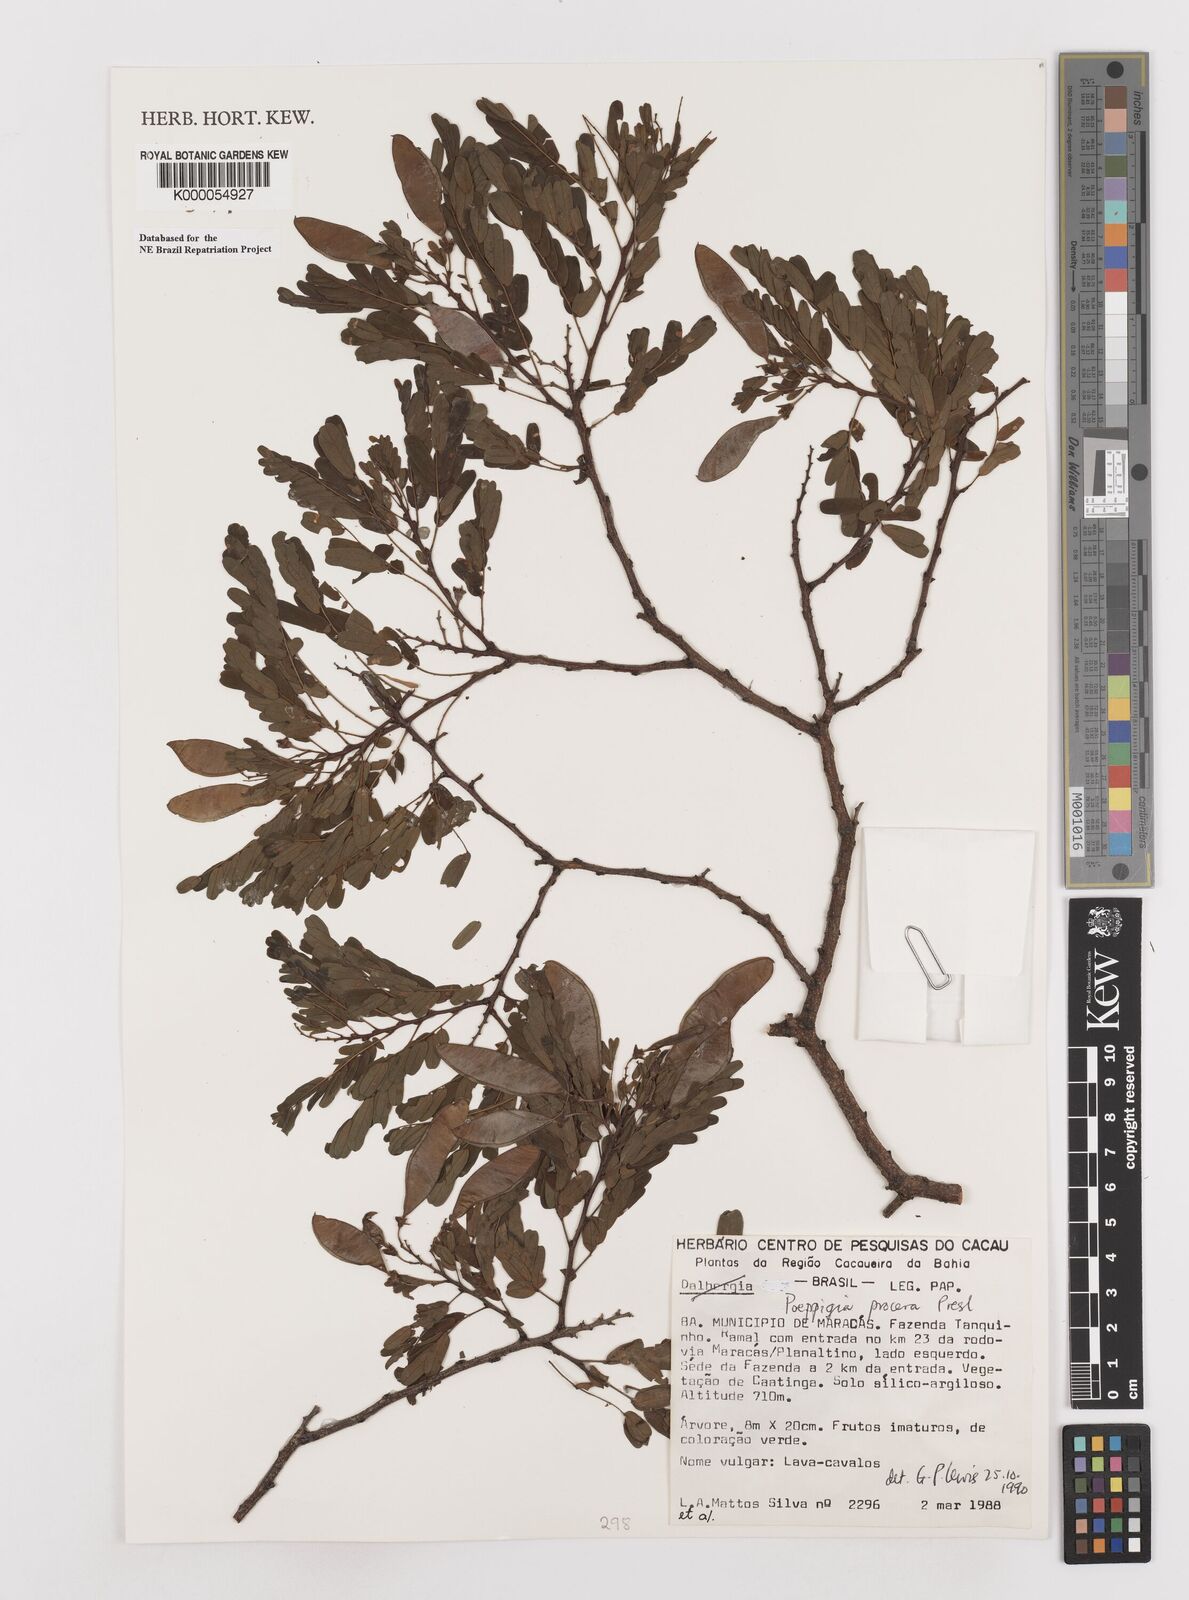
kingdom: Plantae
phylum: Tracheophyta
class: Magnoliopsida
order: Fabales
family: Fabaceae
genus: Poeppigia
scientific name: Poeppigia procera
